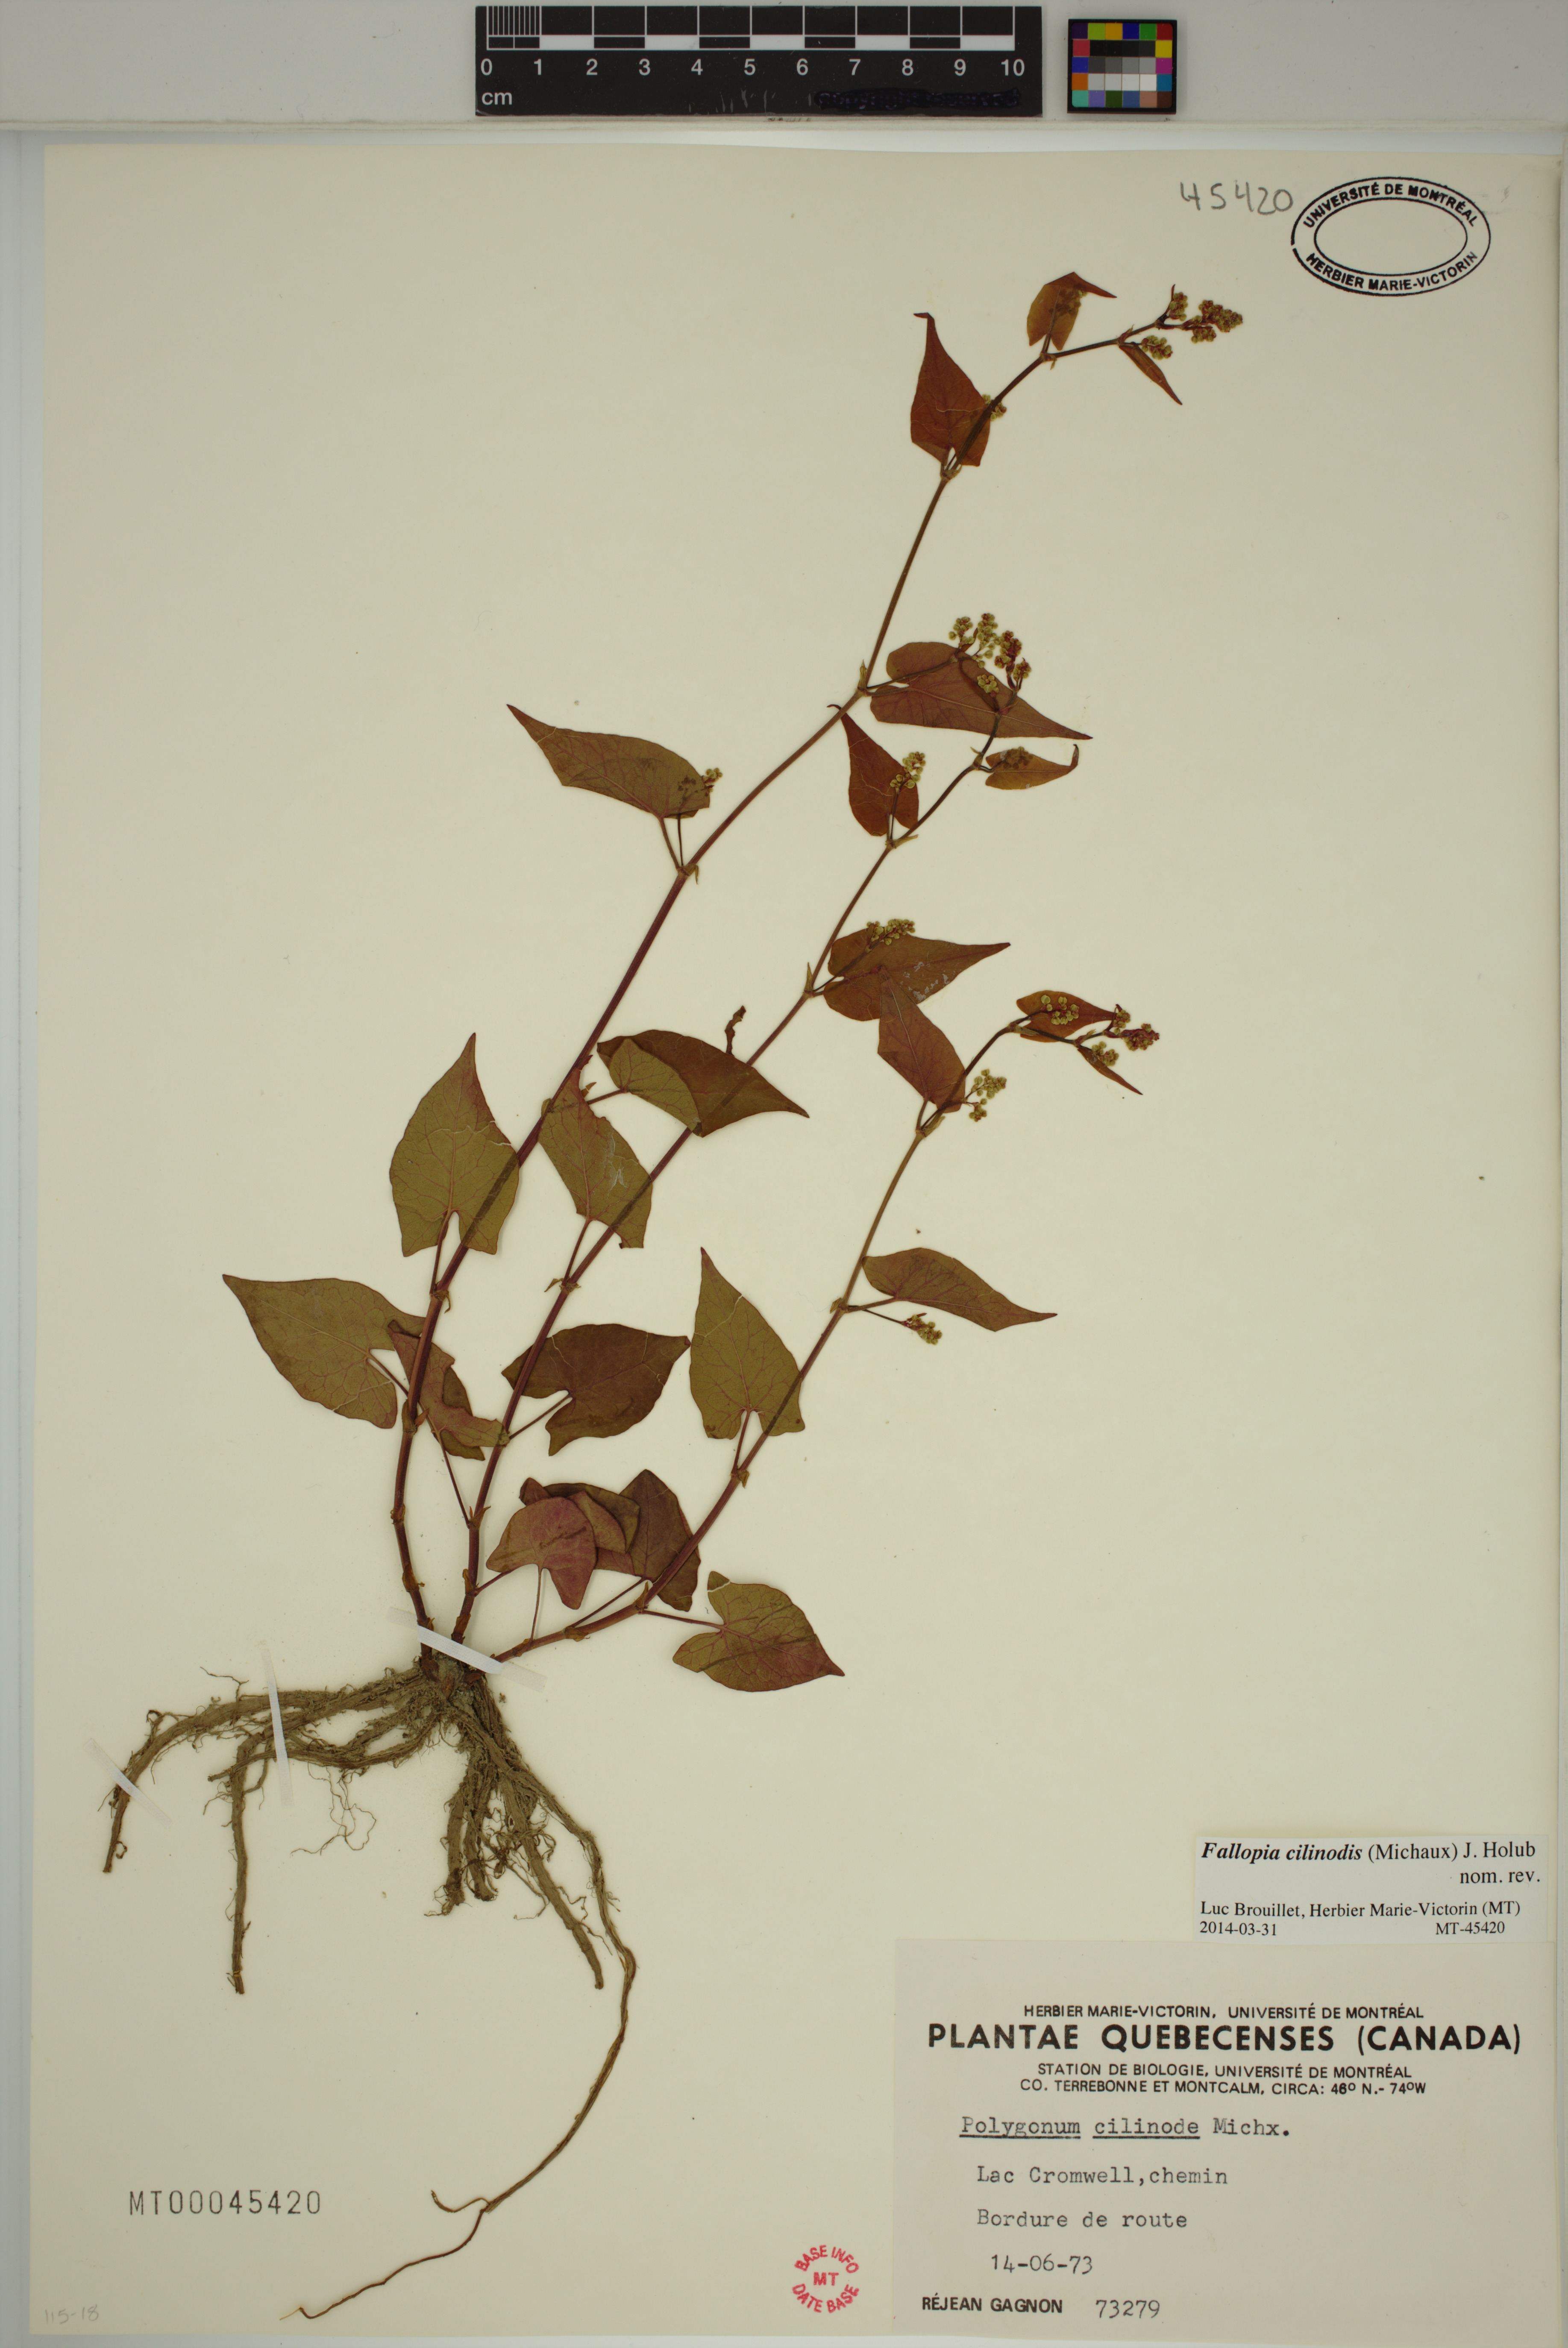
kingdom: Plantae
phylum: Tracheophyta
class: Magnoliopsida
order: Caryophyllales
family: Polygonaceae
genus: Parogonum
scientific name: Parogonum ciliinode
